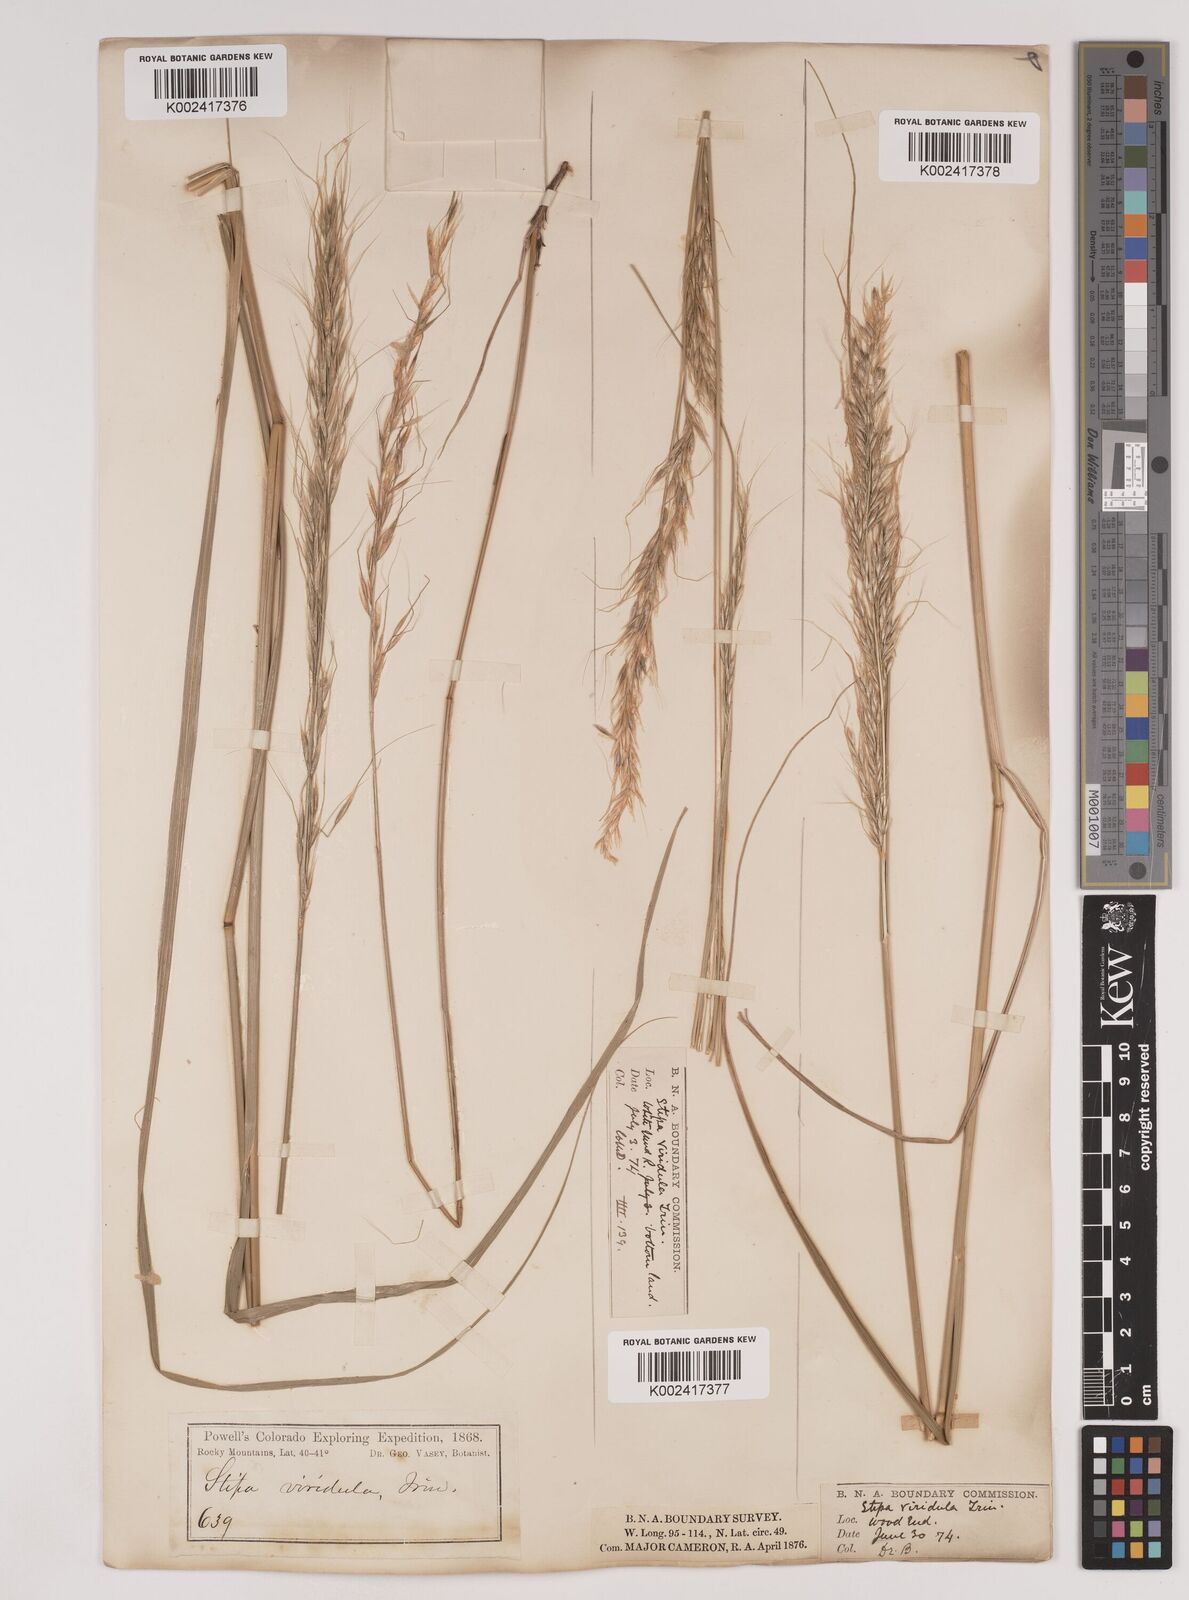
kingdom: Plantae
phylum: Tracheophyta
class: Liliopsida
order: Poales
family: Poaceae
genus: Nassella
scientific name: Nassella viridula
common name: Green needlegrass
